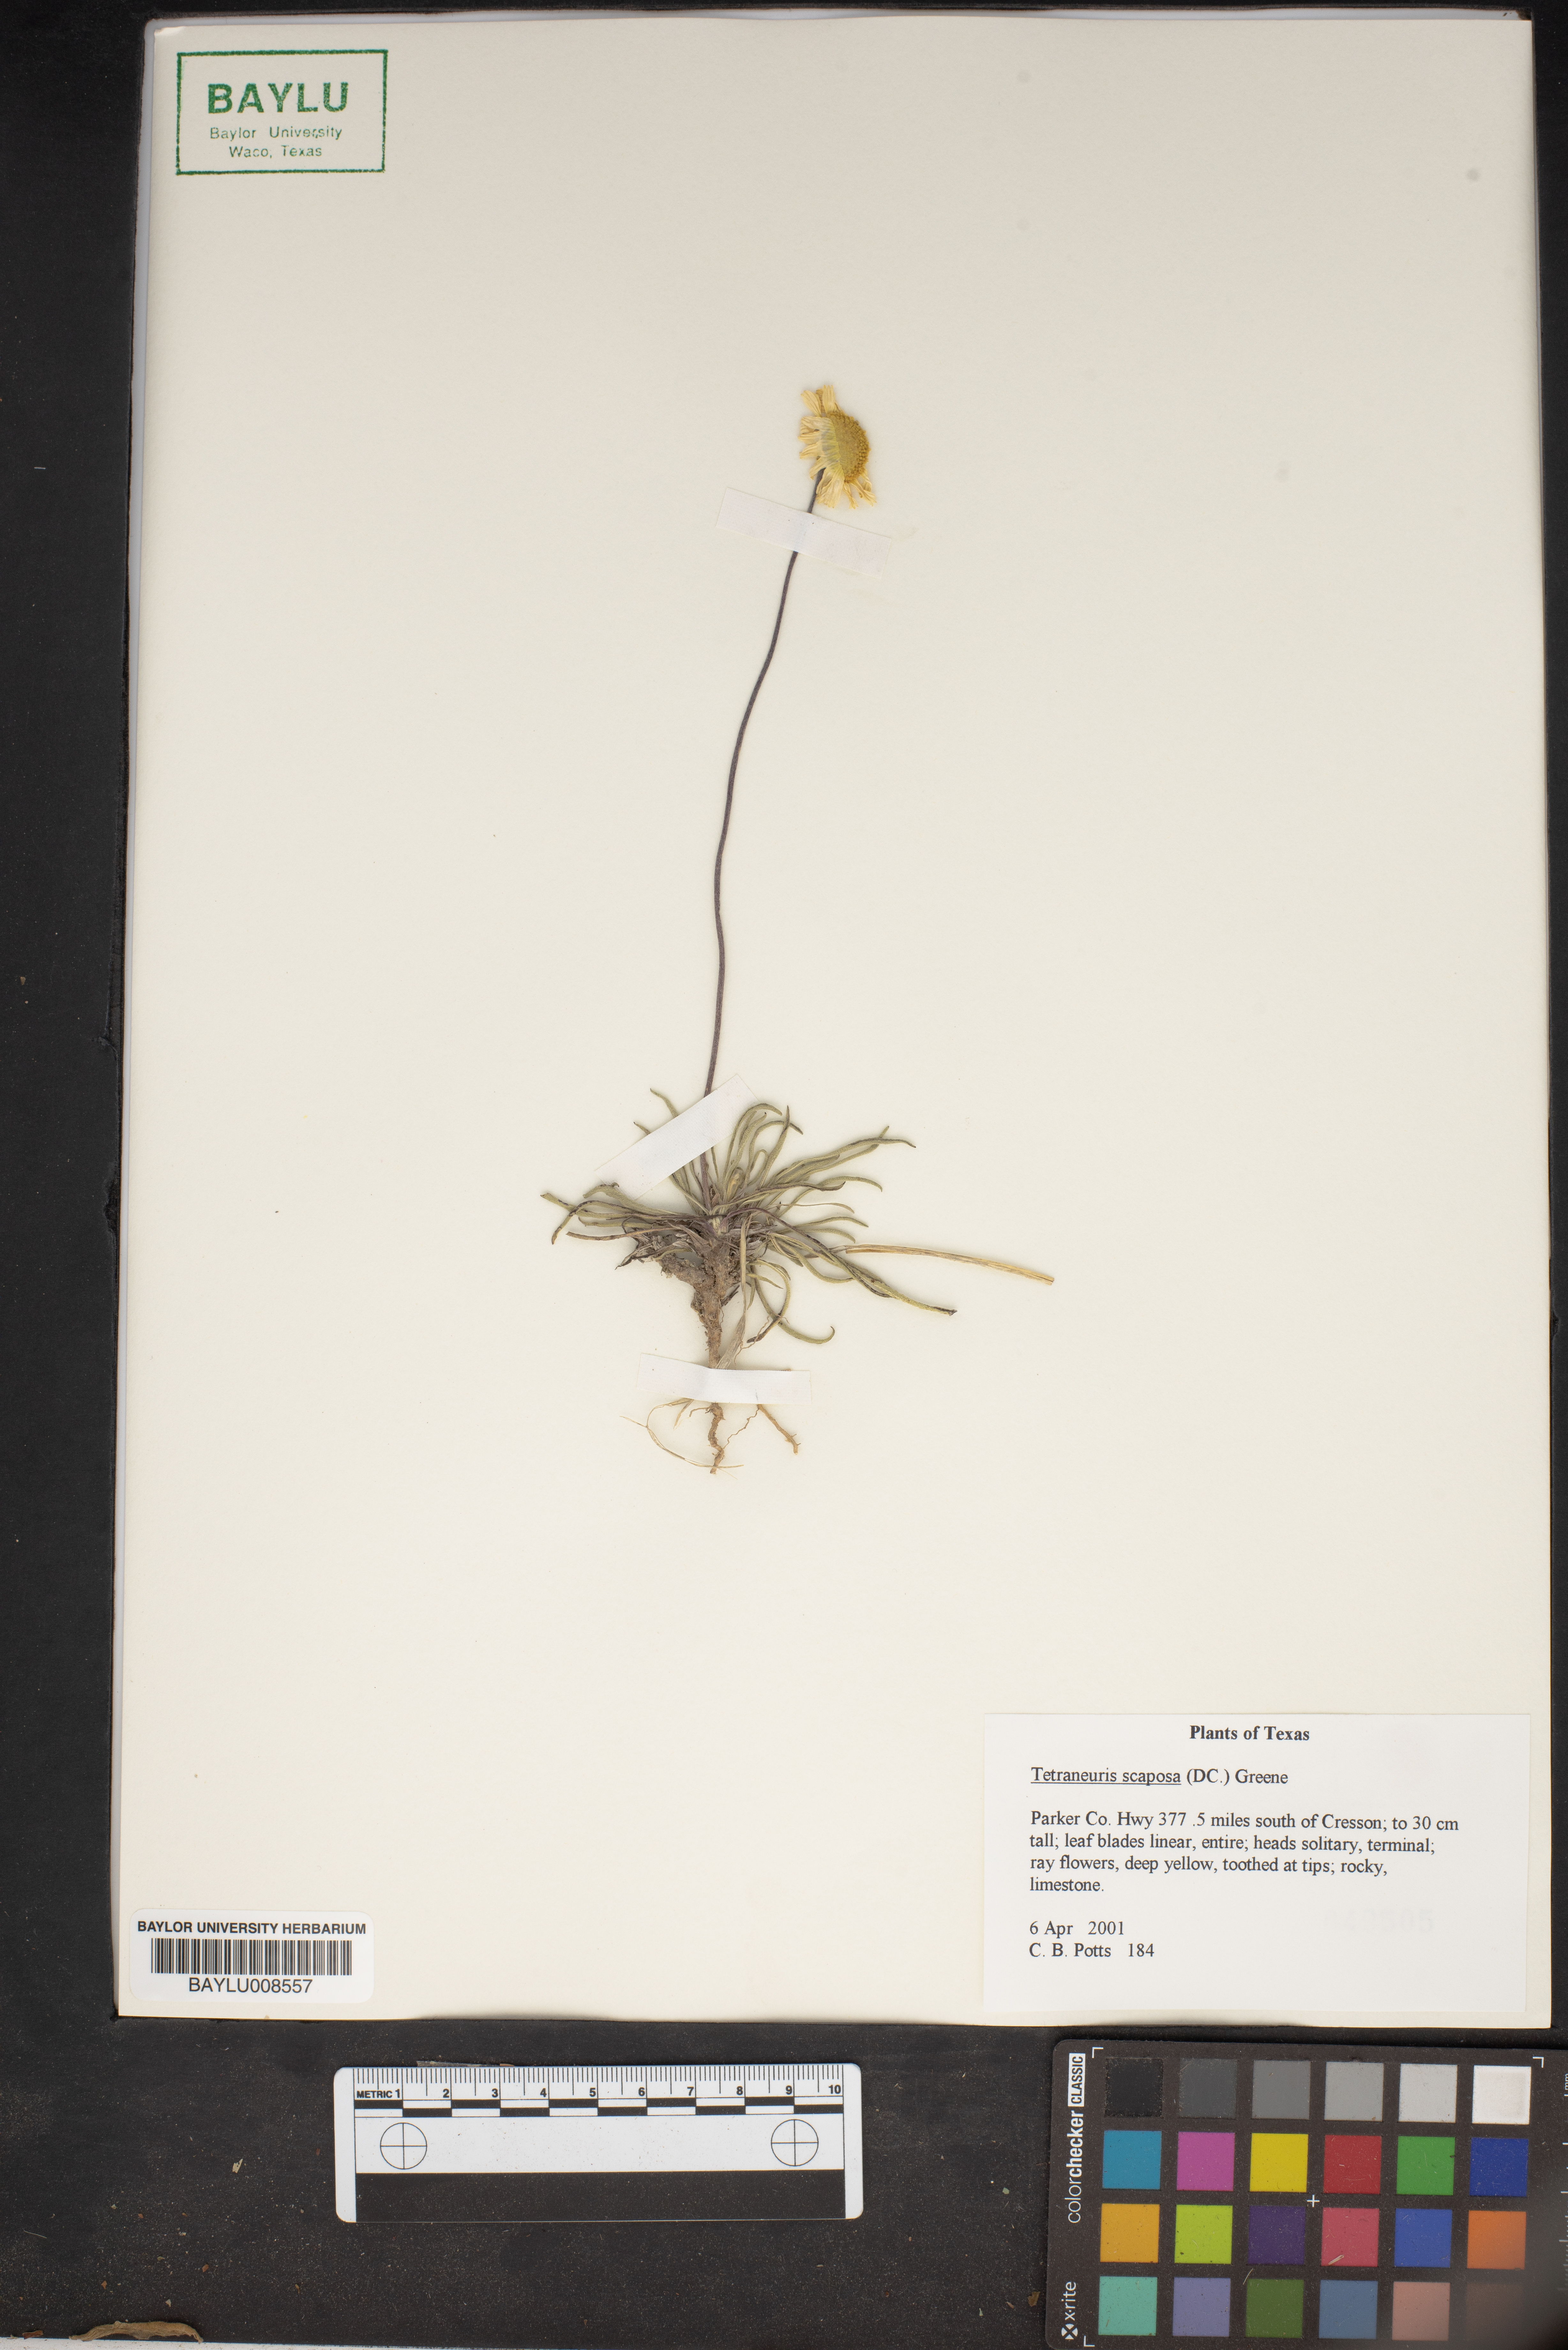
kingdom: Plantae
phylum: Tracheophyta
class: Magnoliopsida
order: Asterales
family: Asteraceae
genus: Tetraneuris
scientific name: Tetraneuris scaposa
